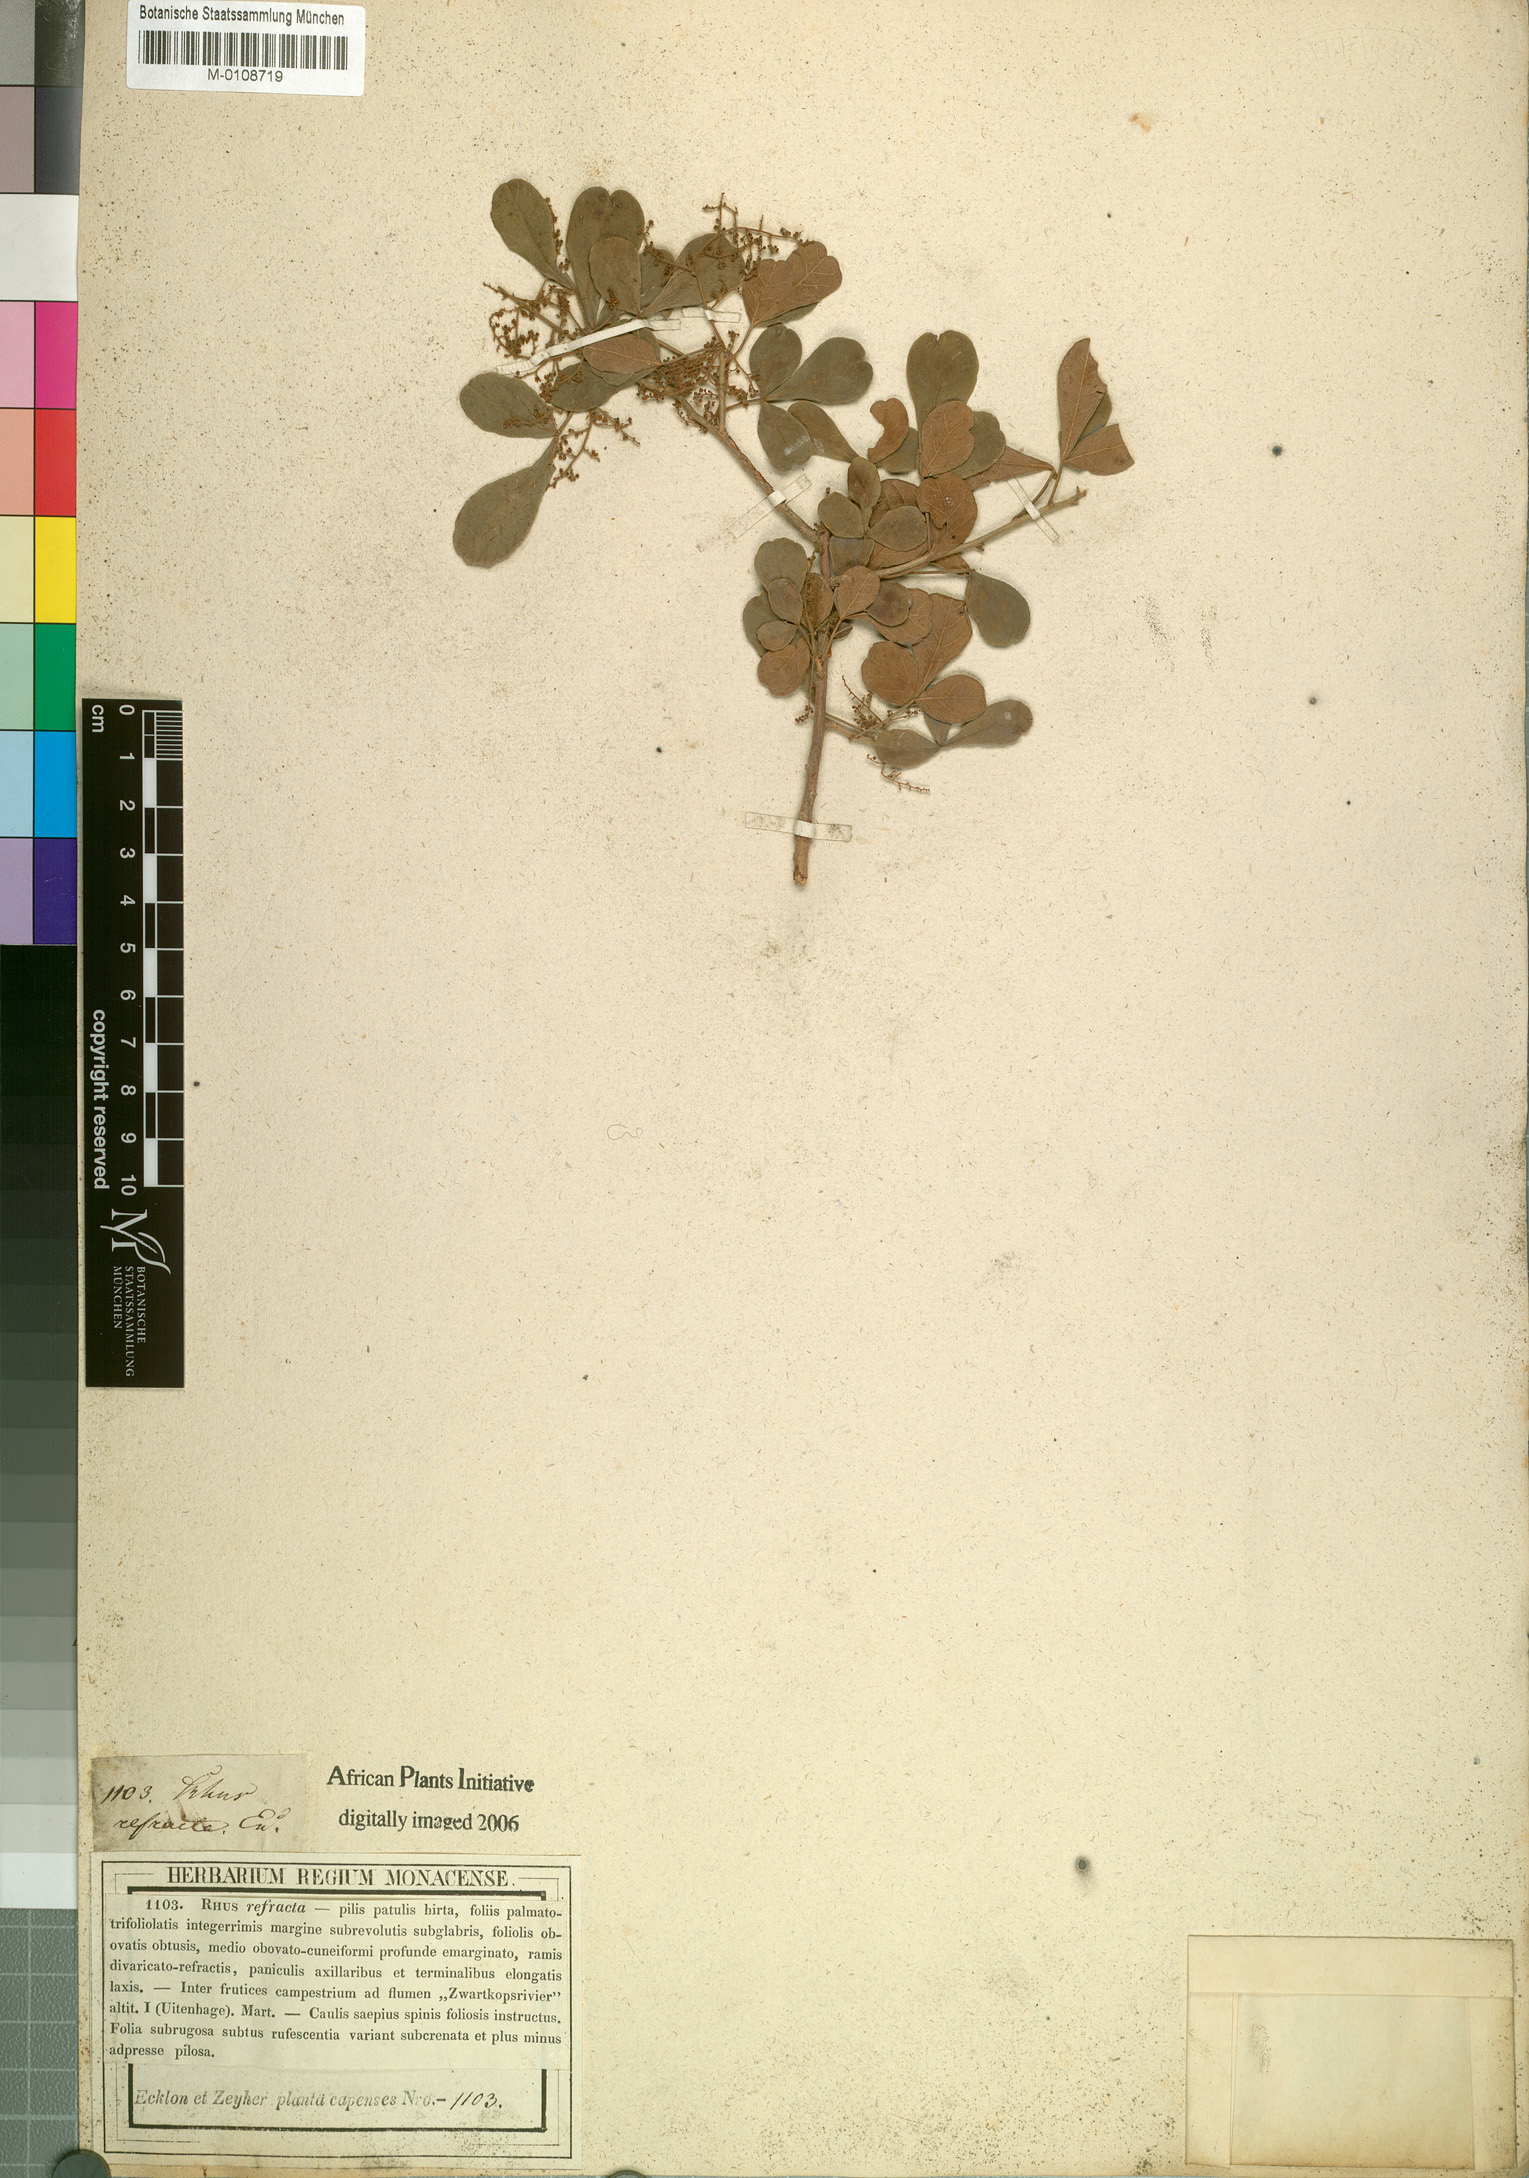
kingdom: Plantae
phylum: Tracheophyta
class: Magnoliopsida
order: Sapindales
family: Anacardiaceae
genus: Searsia
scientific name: Searsia refracta
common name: Thorny crow-berry
